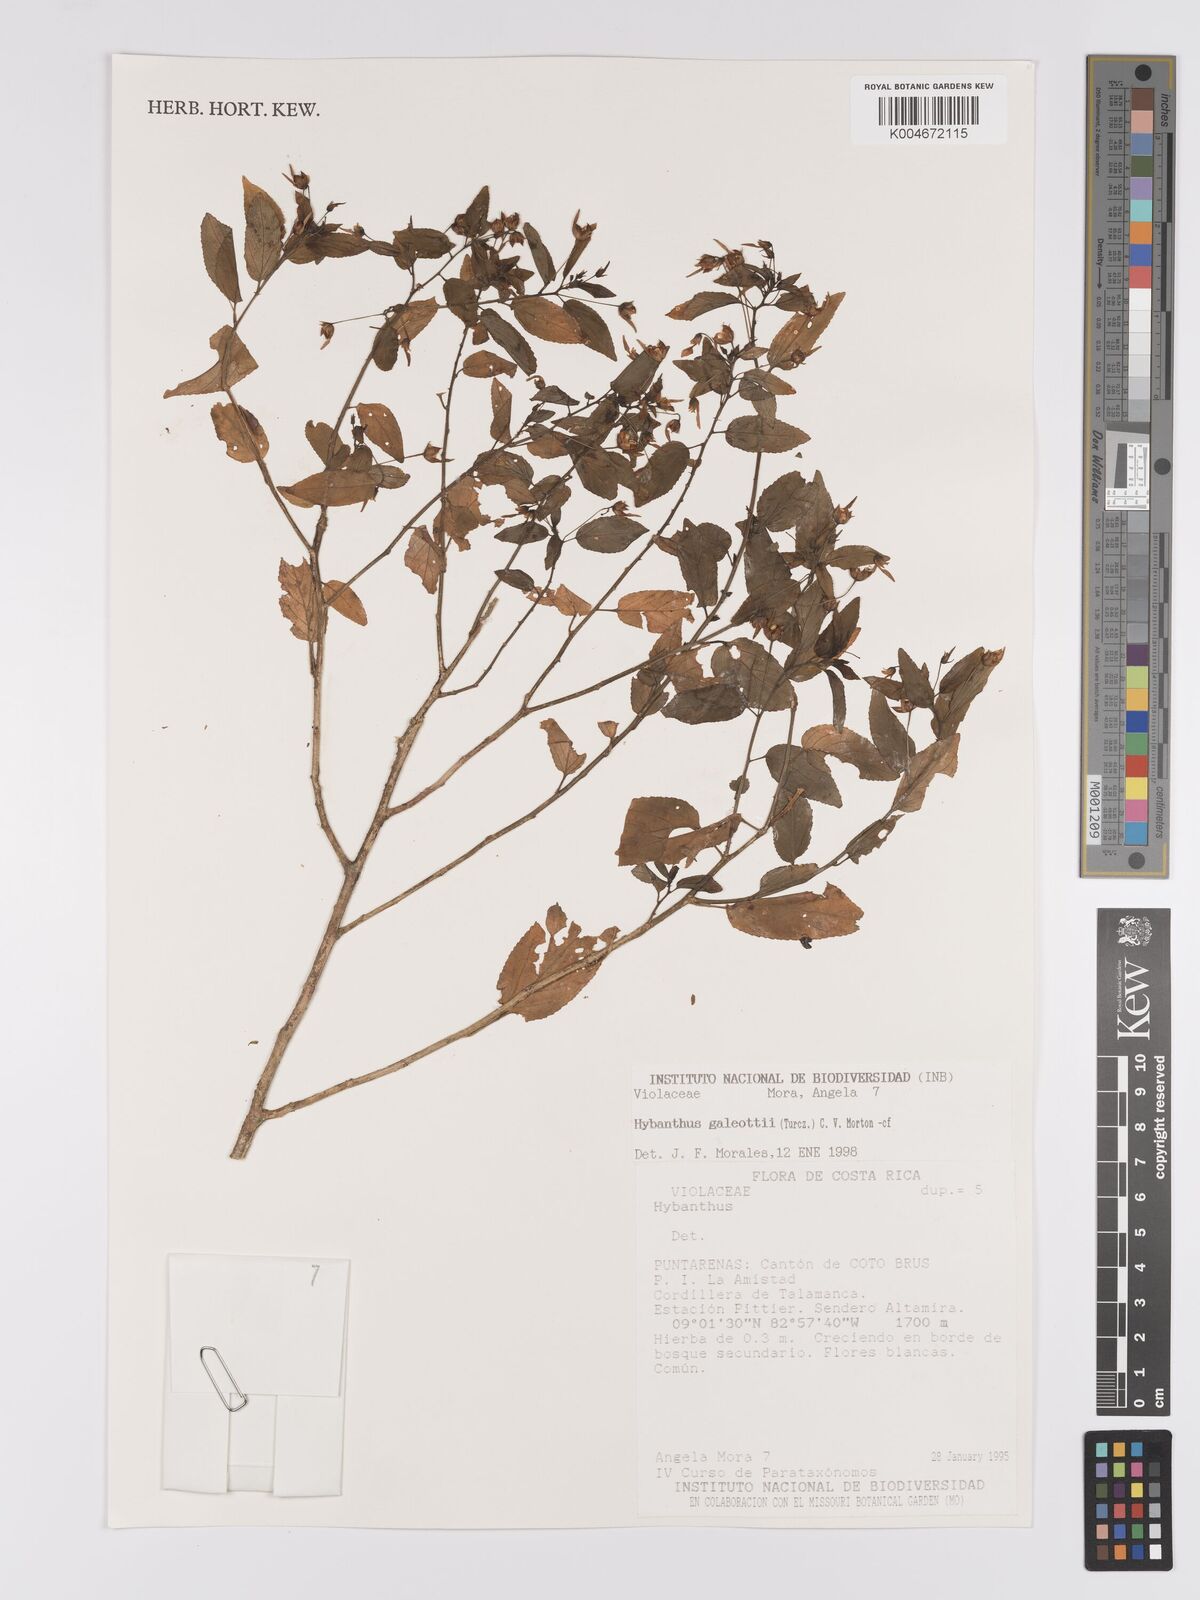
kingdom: Plantae
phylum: Tracheophyta
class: Magnoliopsida
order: Malpighiales
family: Violaceae
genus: Hybanthus
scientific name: Hybanthus galeottii
